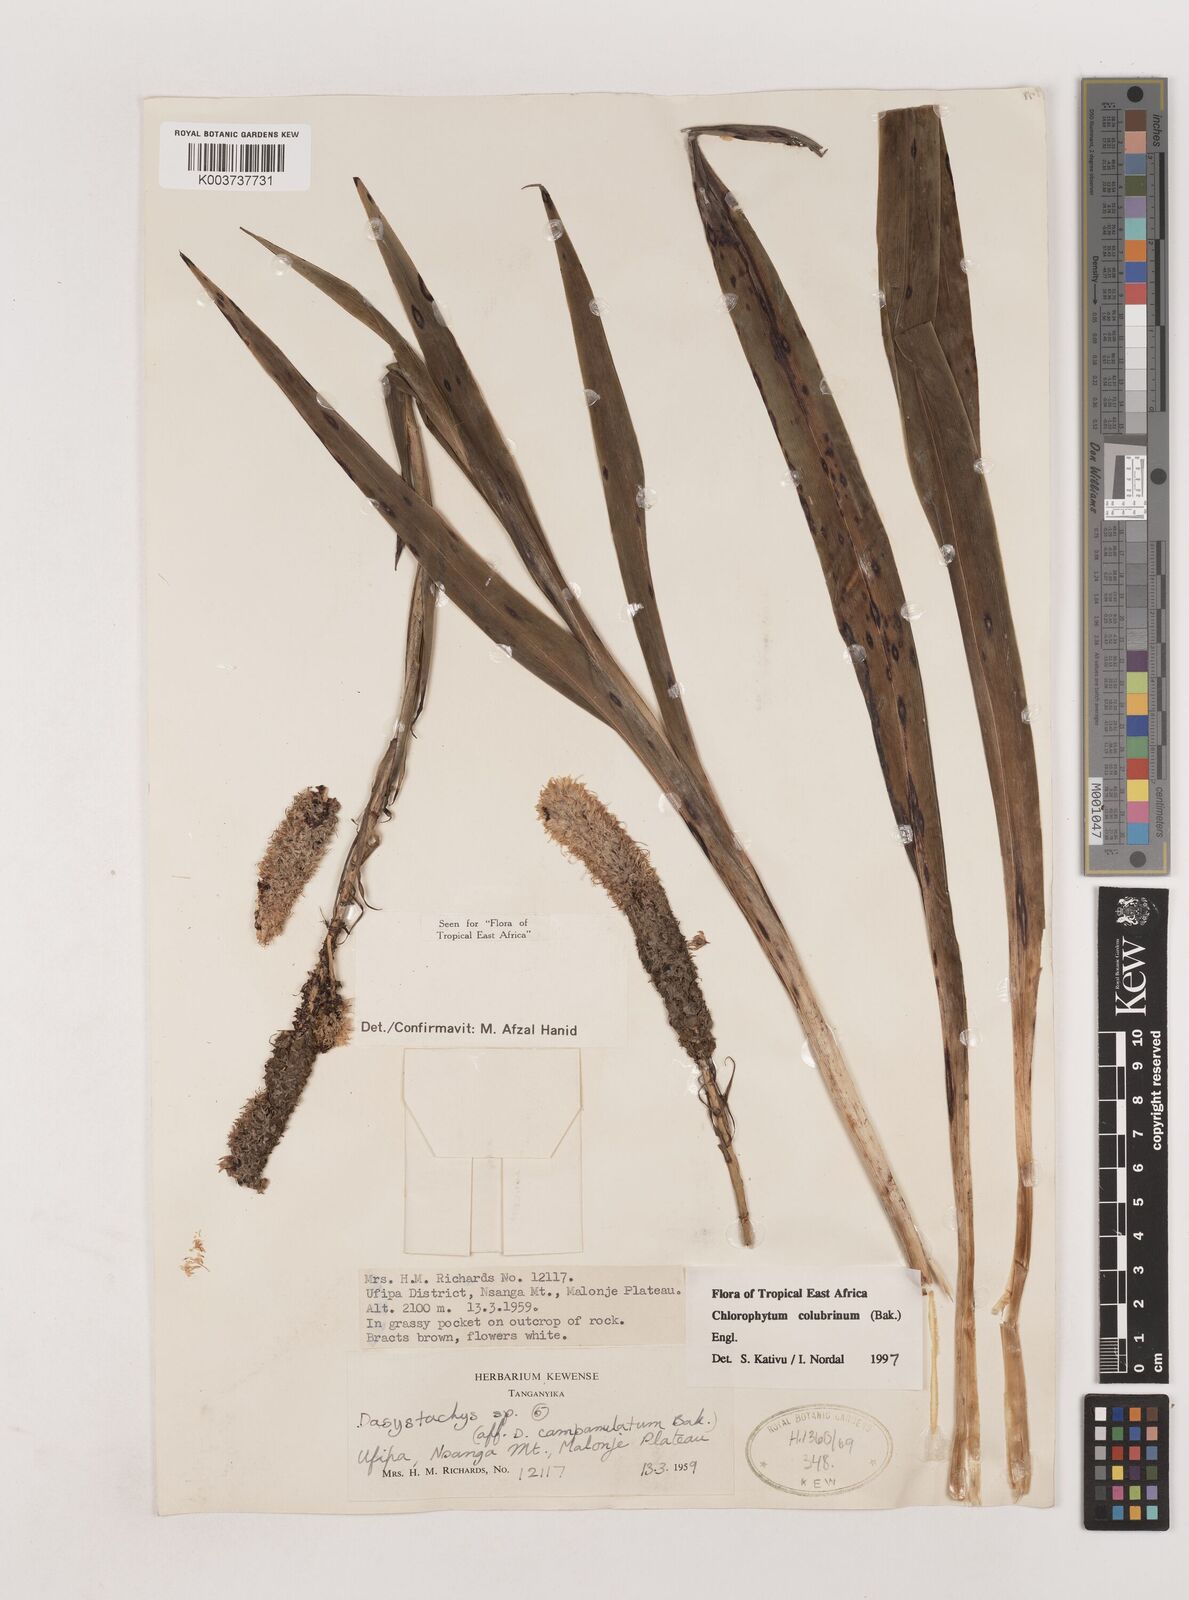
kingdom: Plantae
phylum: Tracheophyta
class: Liliopsida
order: Asparagales
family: Asparagaceae
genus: Chlorophytum
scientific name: Chlorophytum colubrinum
